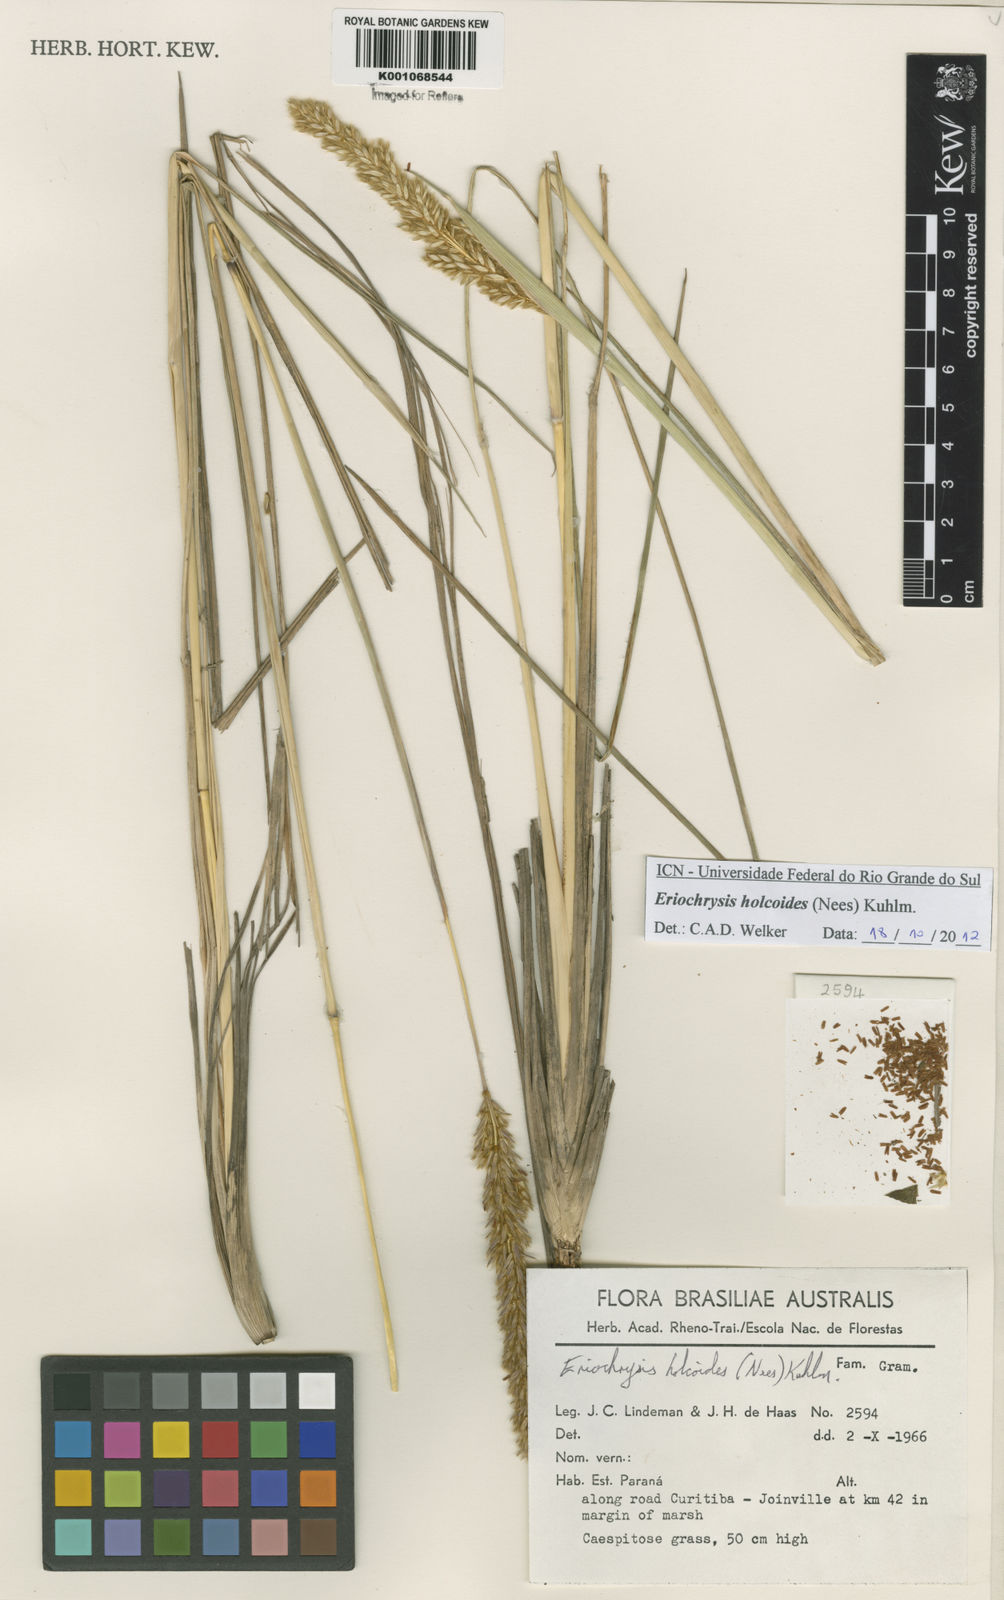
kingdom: Plantae
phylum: Tracheophyta
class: Liliopsida
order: Poales
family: Poaceae
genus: Eriochrysis
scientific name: Eriochrysis holcoides
